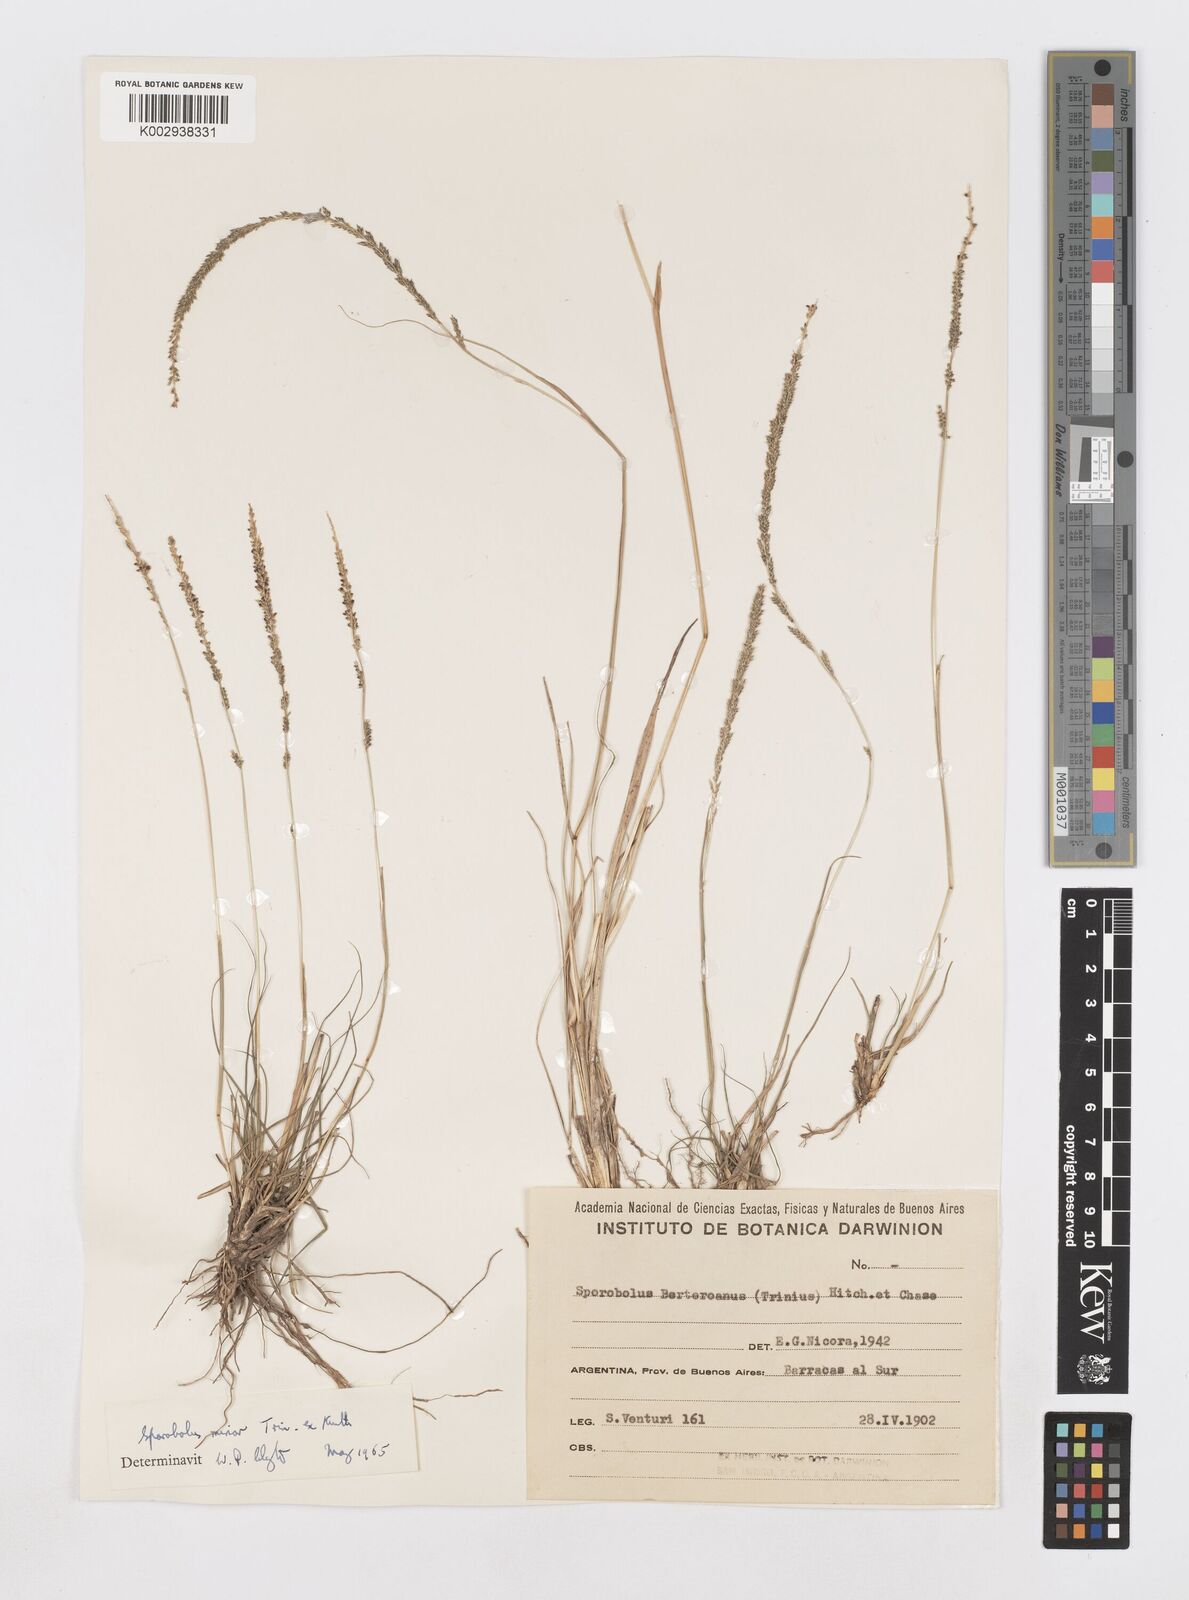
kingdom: Plantae
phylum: Tracheophyta
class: Liliopsida
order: Poales
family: Poaceae
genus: Sporobolus
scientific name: Sporobolus minor
